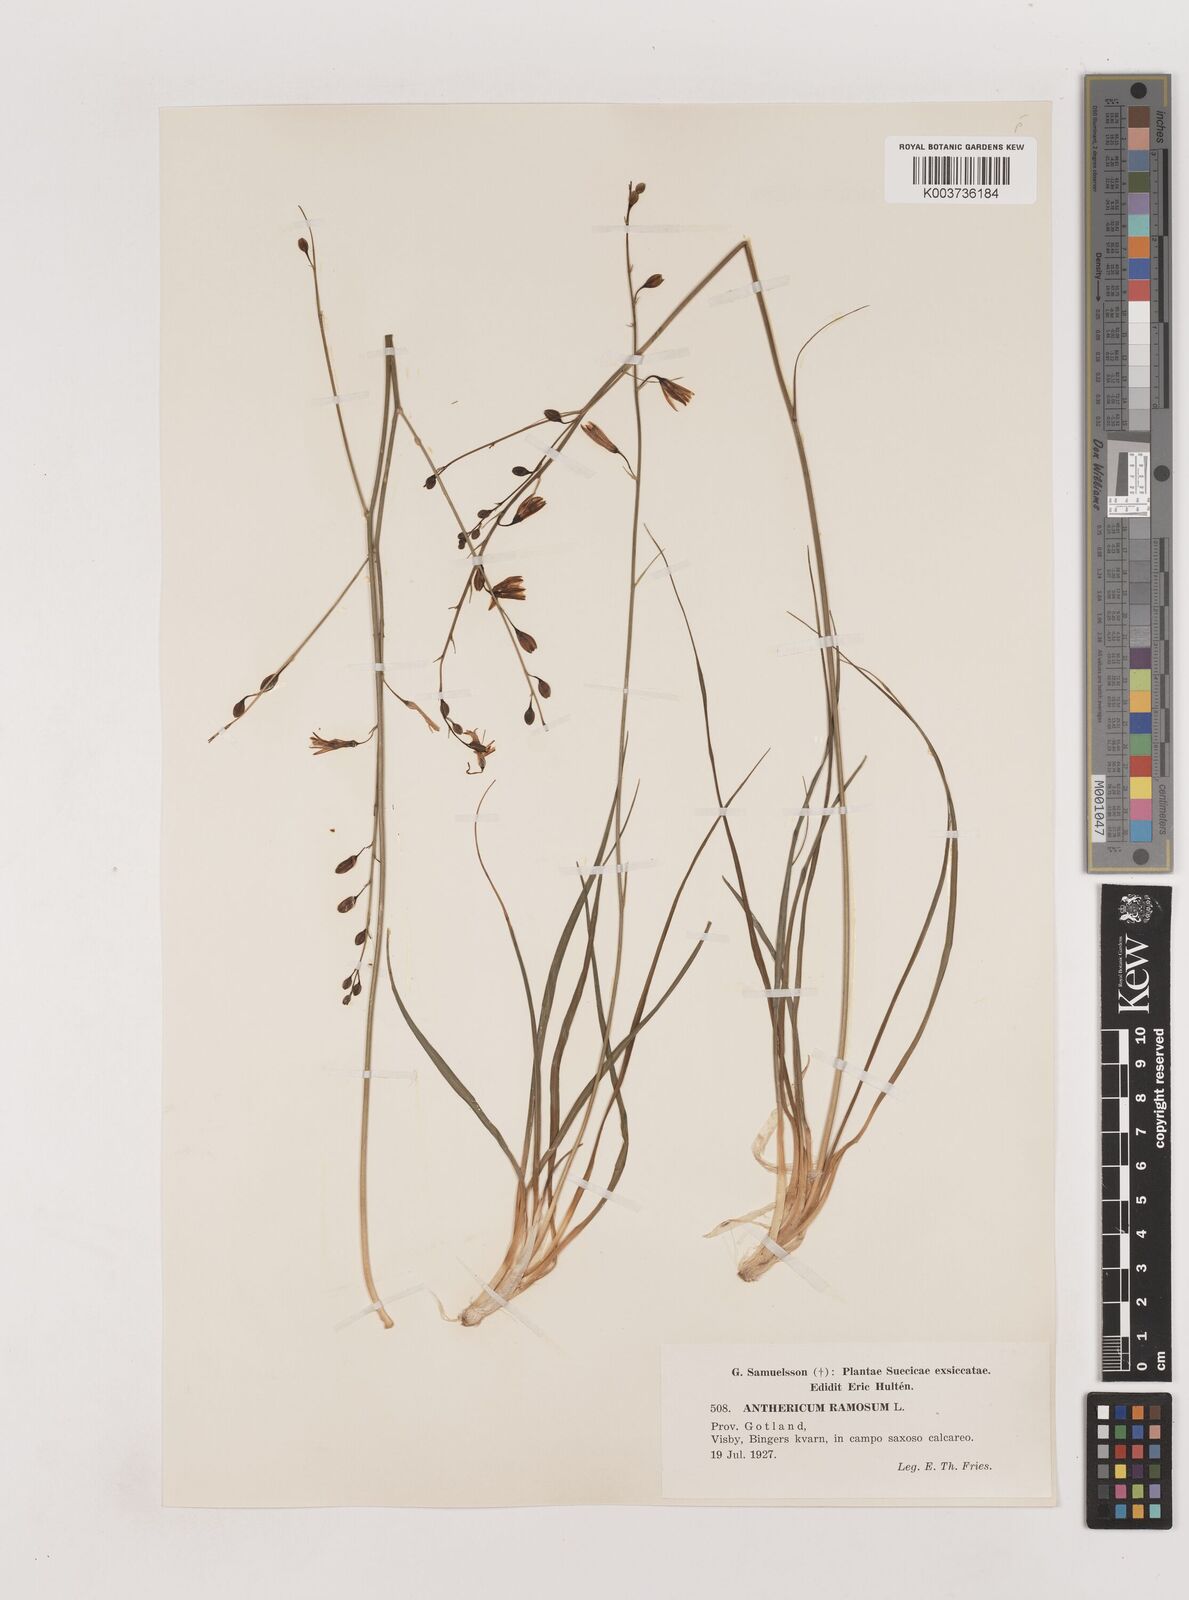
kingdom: Plantae
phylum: Tracheophyta
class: Liliopsida
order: Asparagales
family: Asparagaceae
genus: Anthericum
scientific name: Anthericum ramosum
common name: Branched st. bernard's-lily
